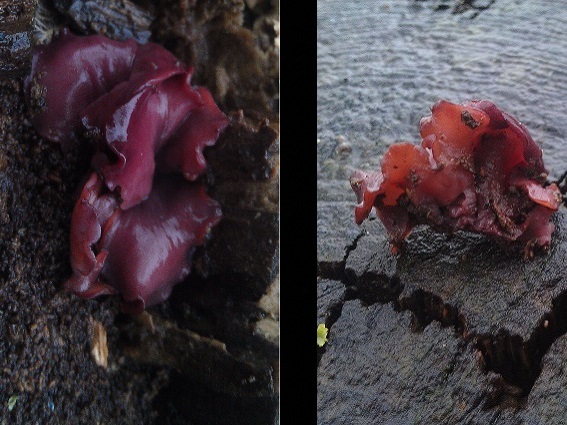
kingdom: Fungi
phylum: Ascomycota
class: Leotiomycetes
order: Helotiales
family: Gelatinodiscaceae
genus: Ascocoryne
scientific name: Ascocoryne cylichnium
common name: stor sejskive
